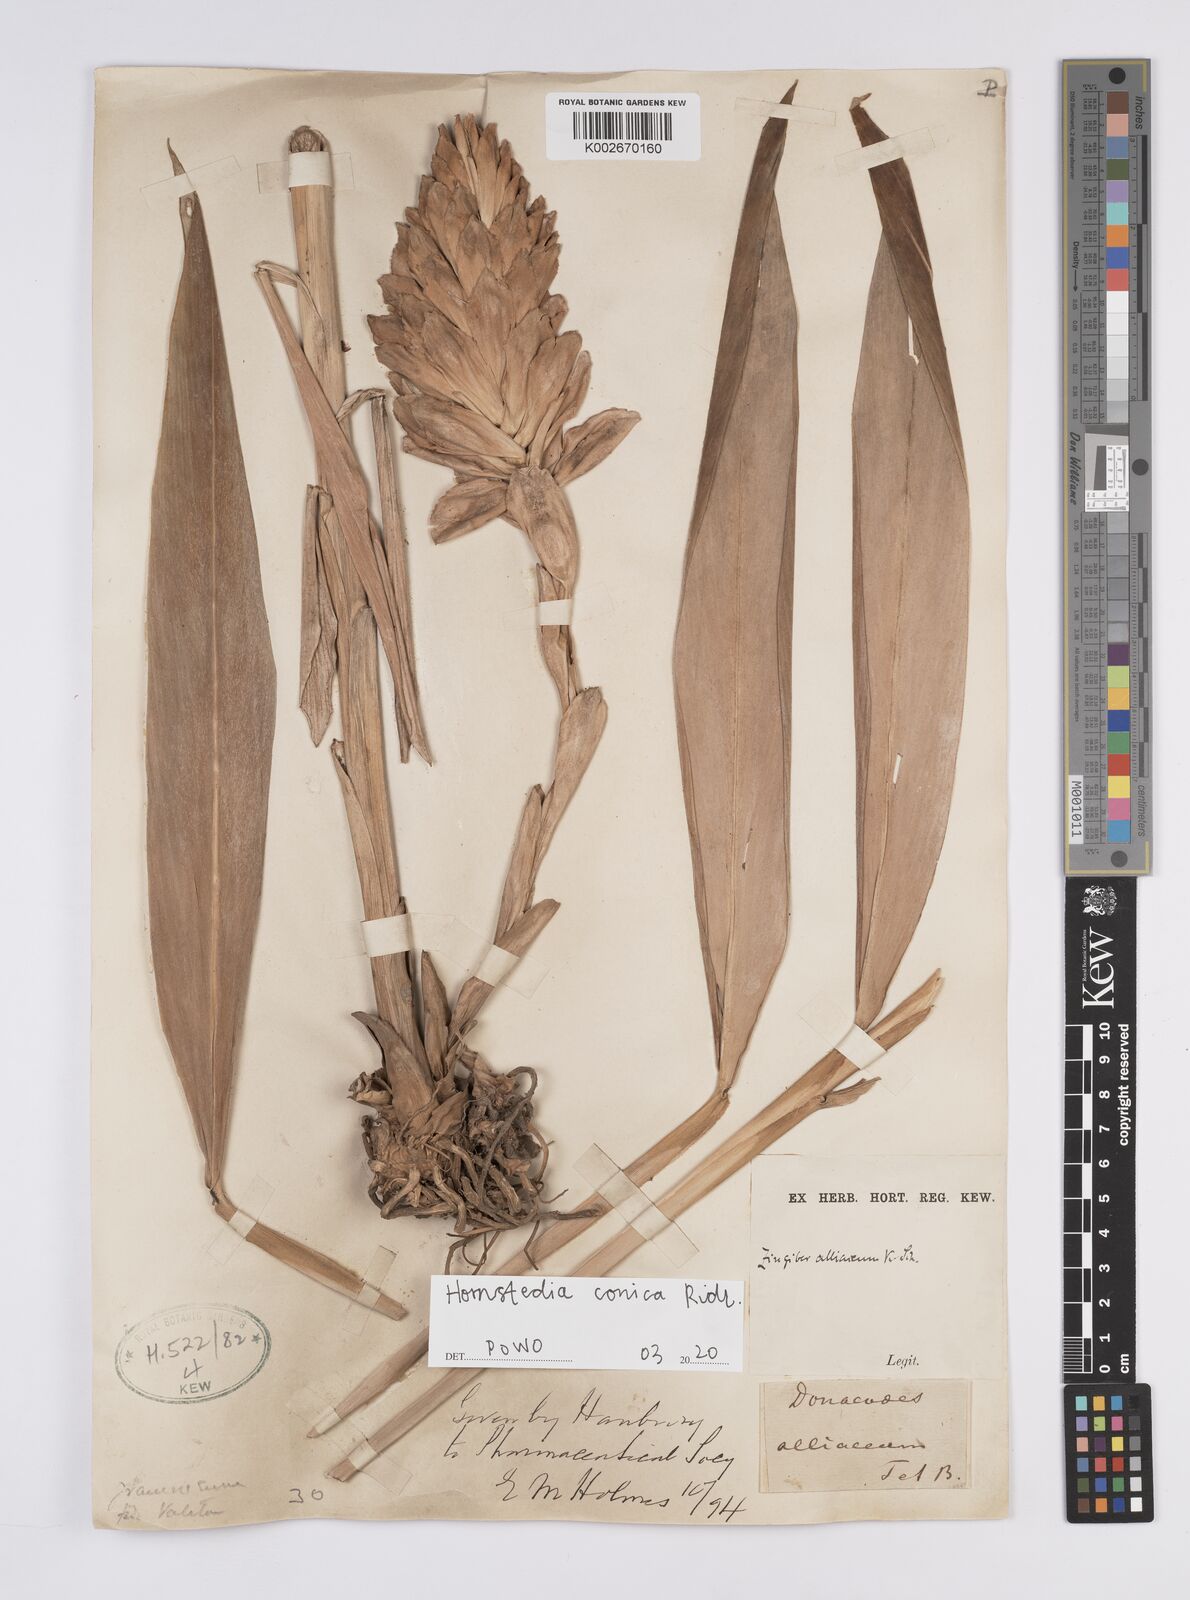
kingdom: Plantae
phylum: Tracheophyta
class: Liliopsida
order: Zingiberales
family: Zingiberaceae
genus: Hornstedtia
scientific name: Hornstedtia conica
